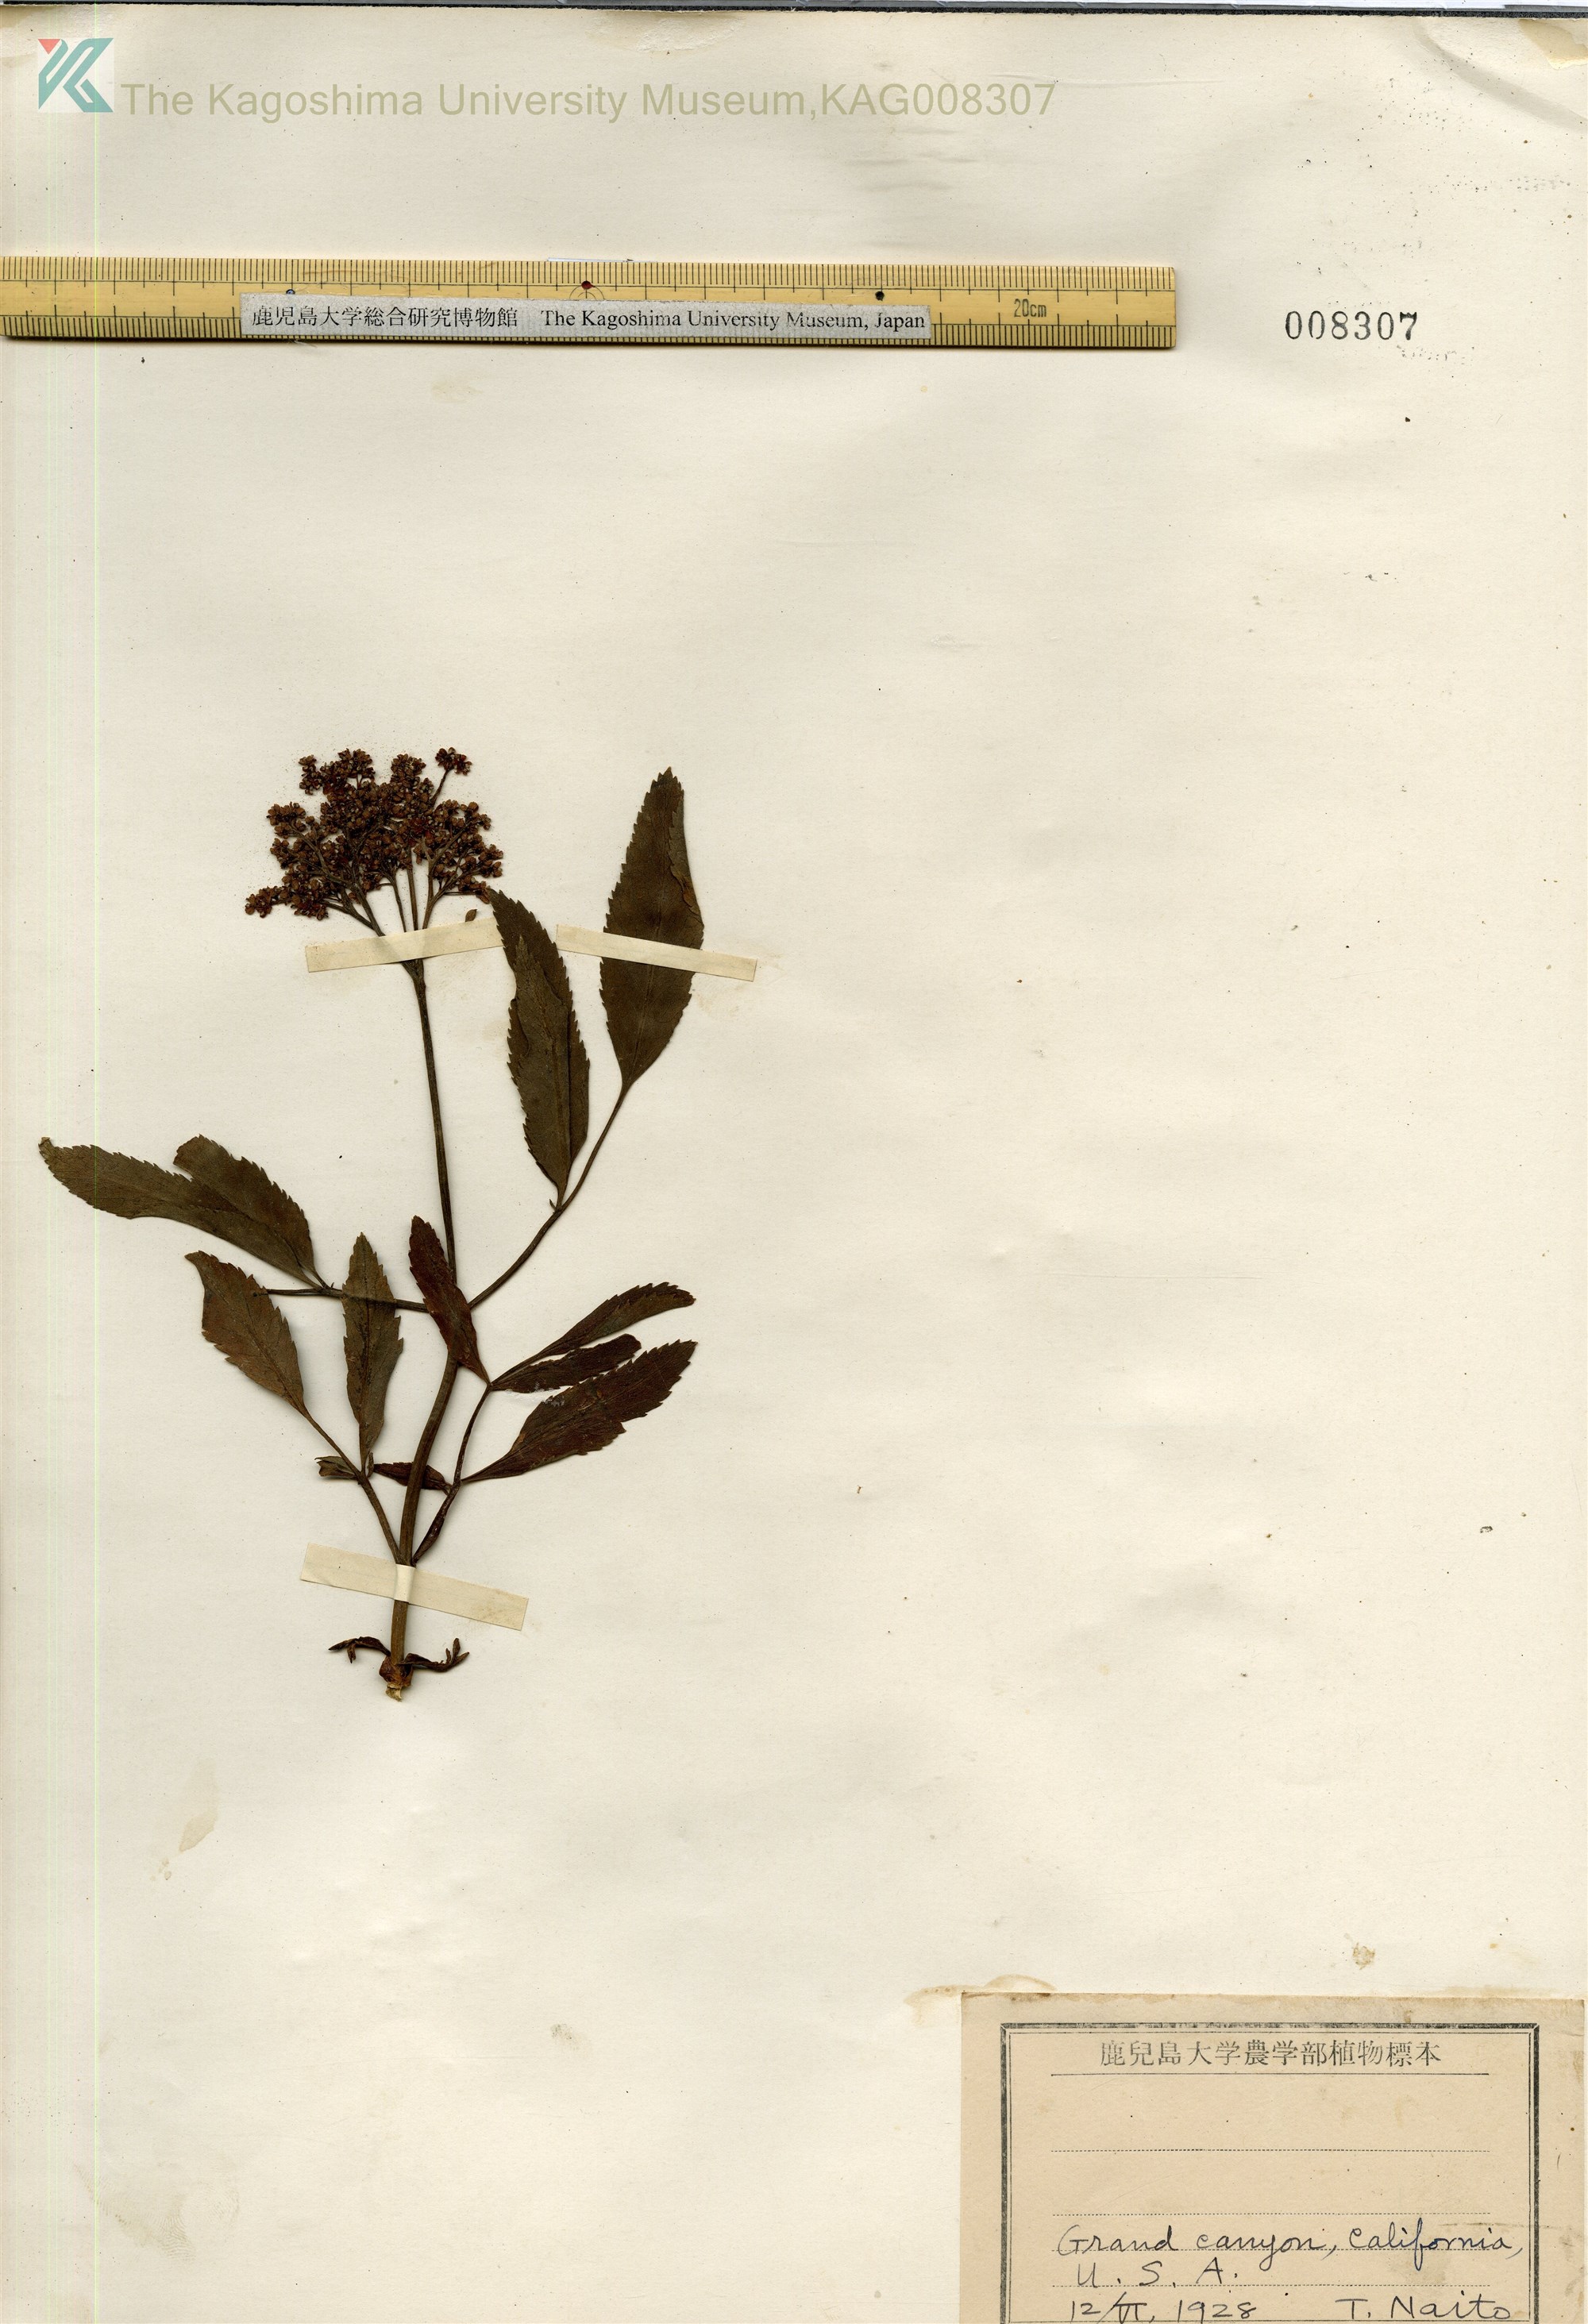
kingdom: Plantae
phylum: Tracheophyta
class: Magnoliopsida
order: Dipsacales
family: Viburnaceae
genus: Sambucus
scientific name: Sambucus cerulea
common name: Blue elder
